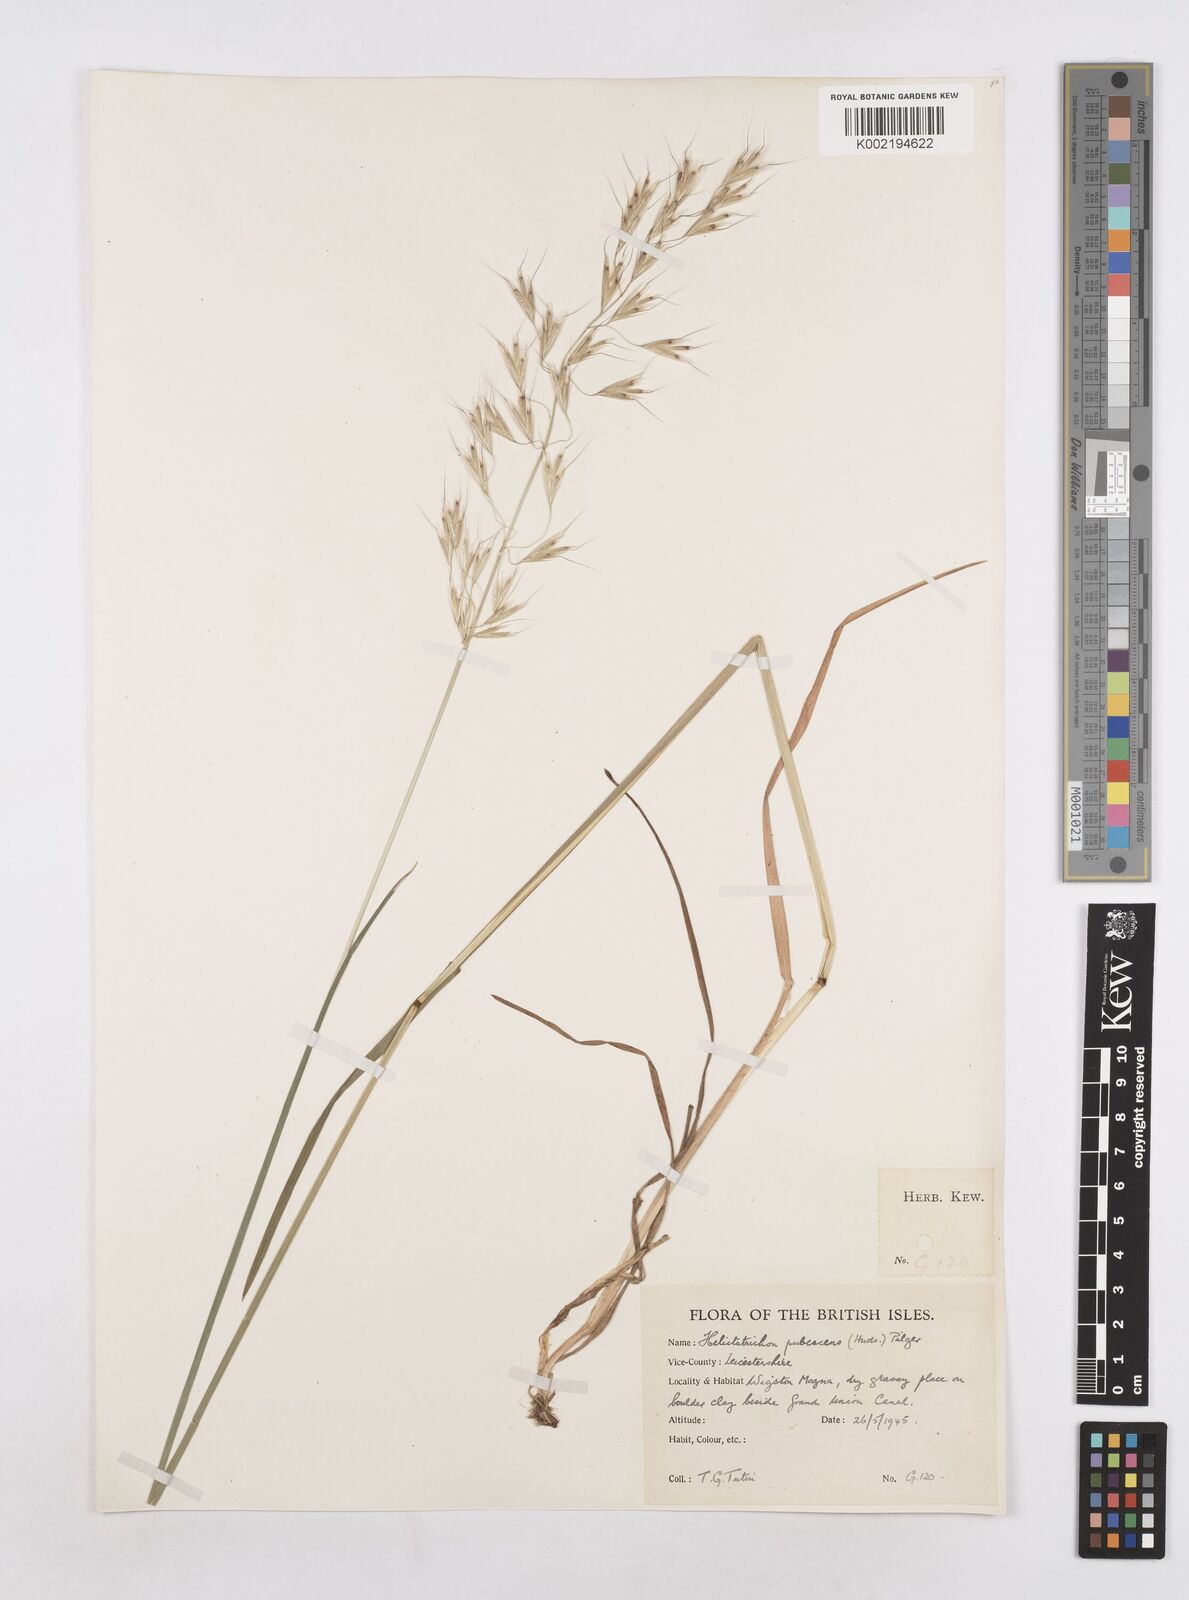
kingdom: Plantae
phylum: Tracheophyta
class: Liliopsida
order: Poales
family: Poaceae
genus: Avenula
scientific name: Avenula pubescens
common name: Downy alpine oatgrass
